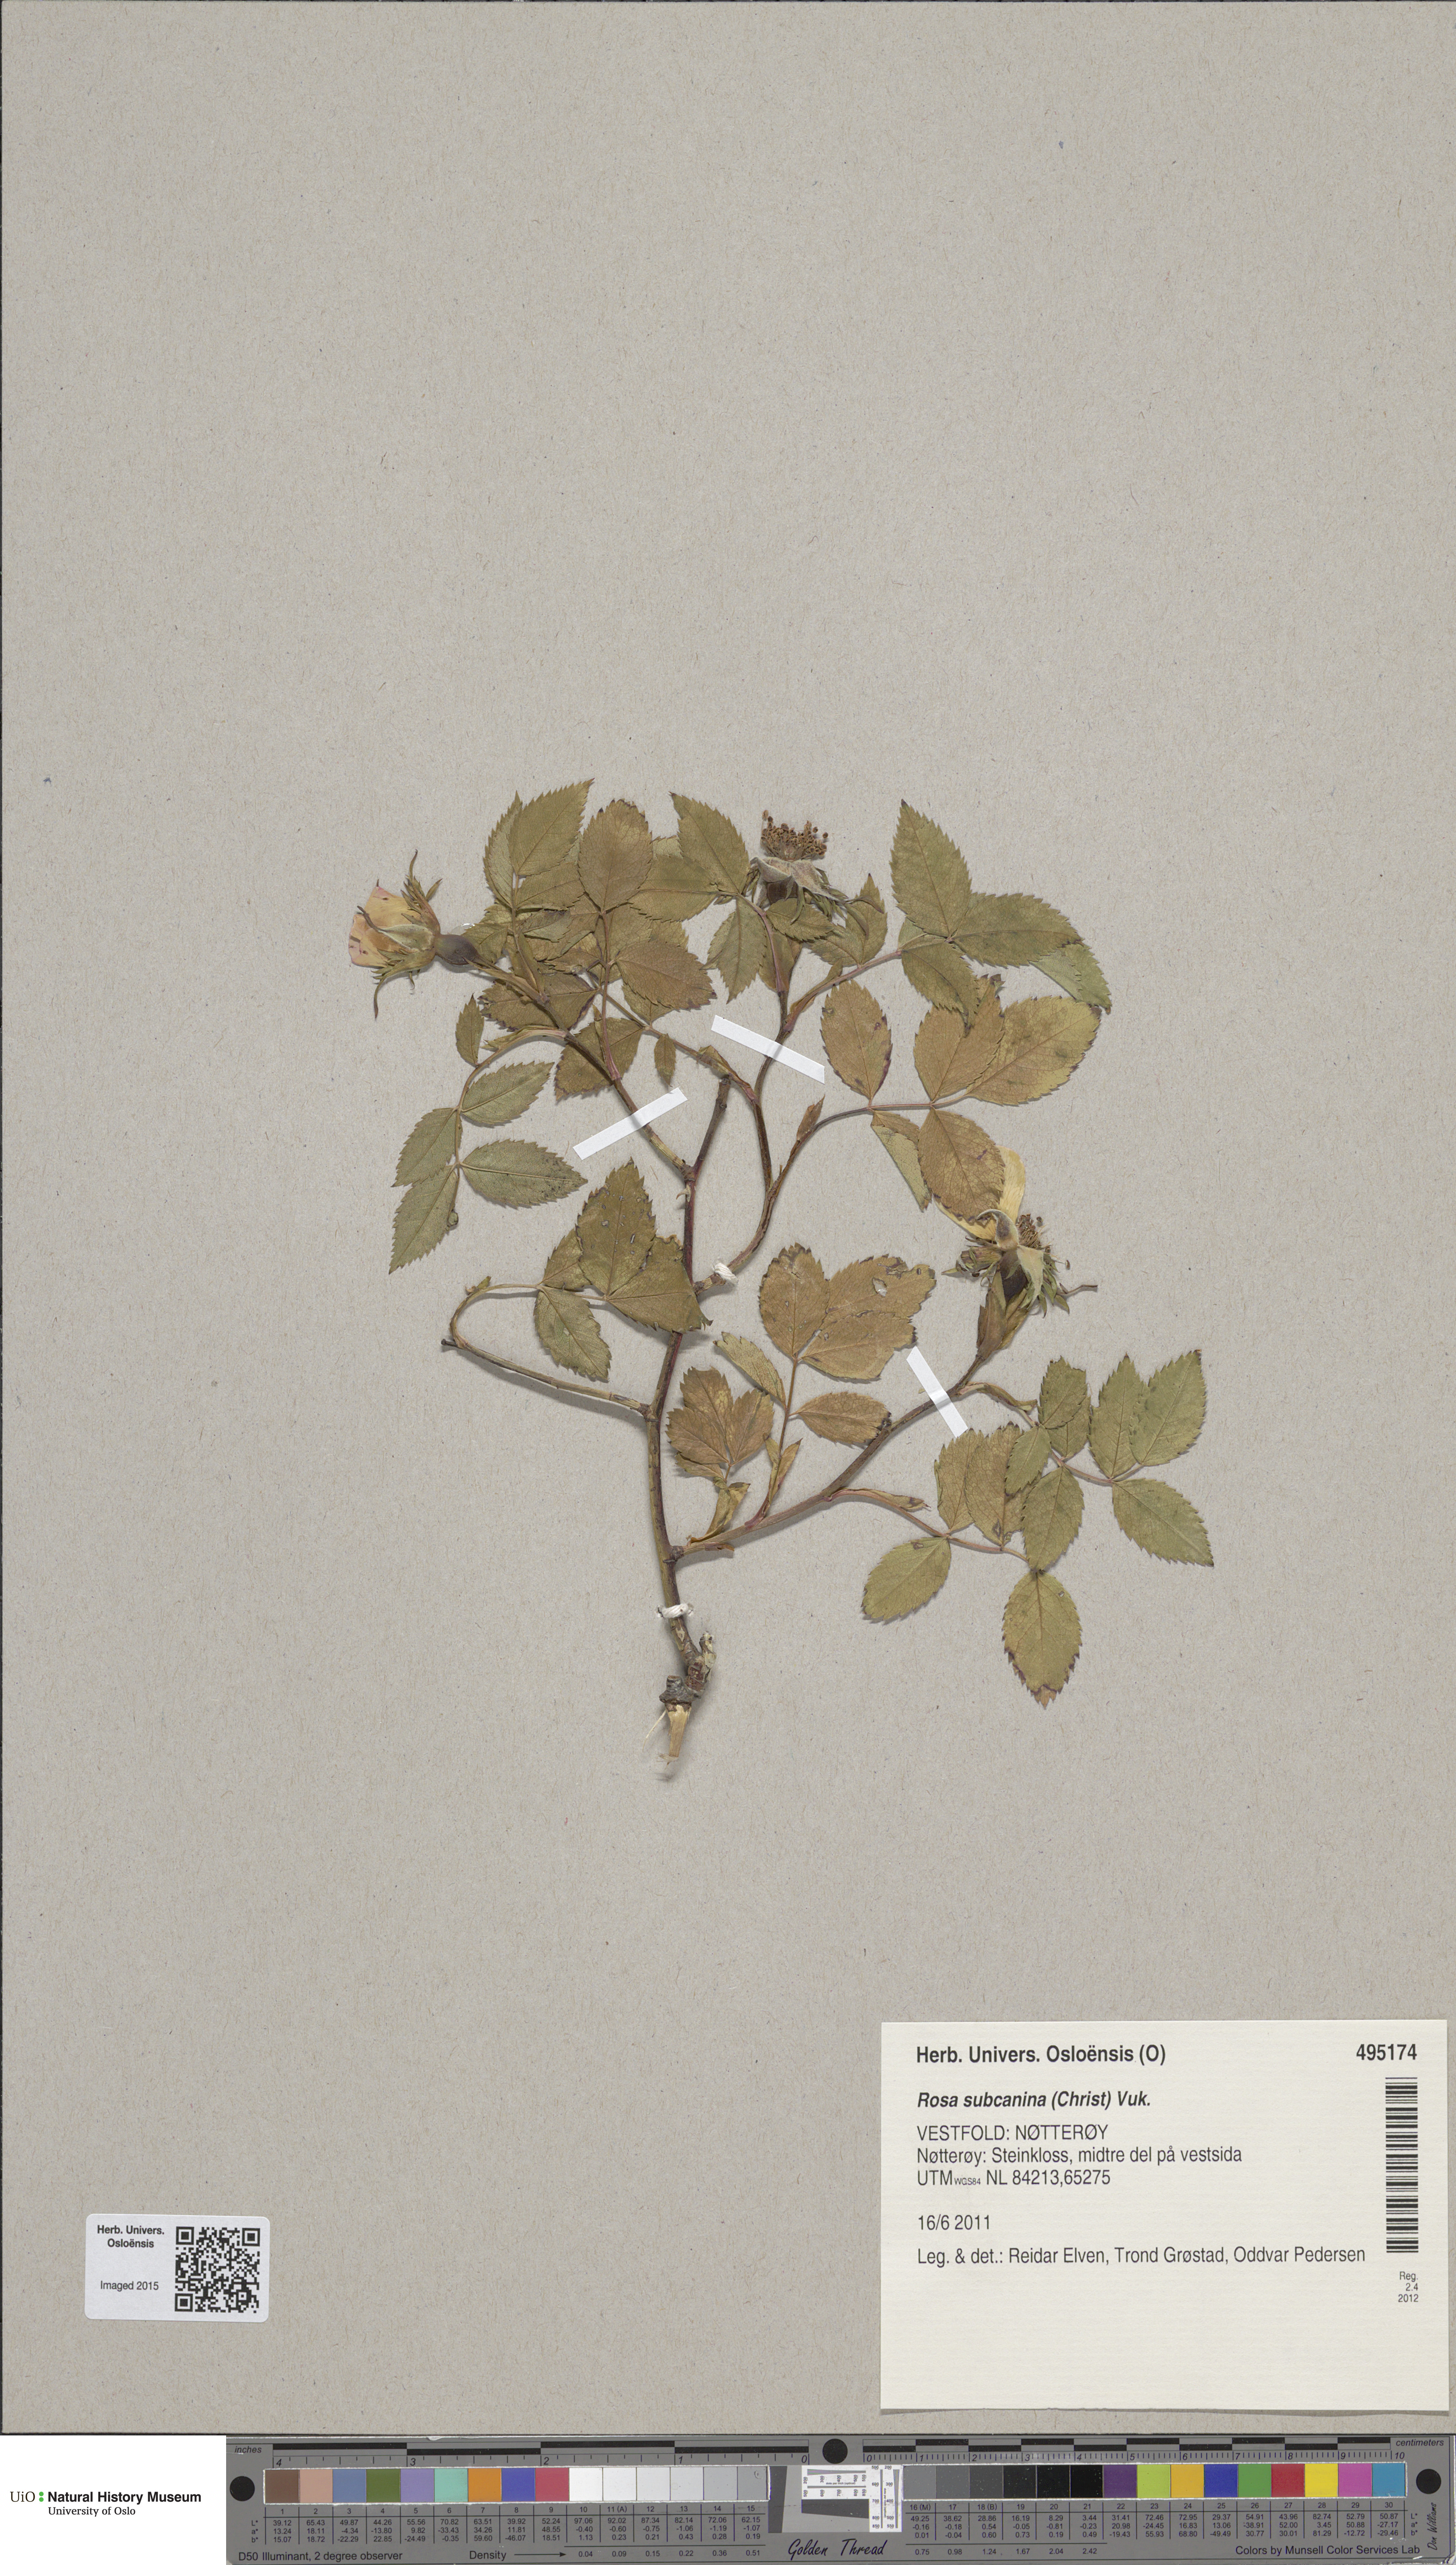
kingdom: Plantae
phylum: Tracheophyta
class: Magnoliopsida
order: Rosales
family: Rosaceae
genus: Rosa
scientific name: Rosa subcanina
